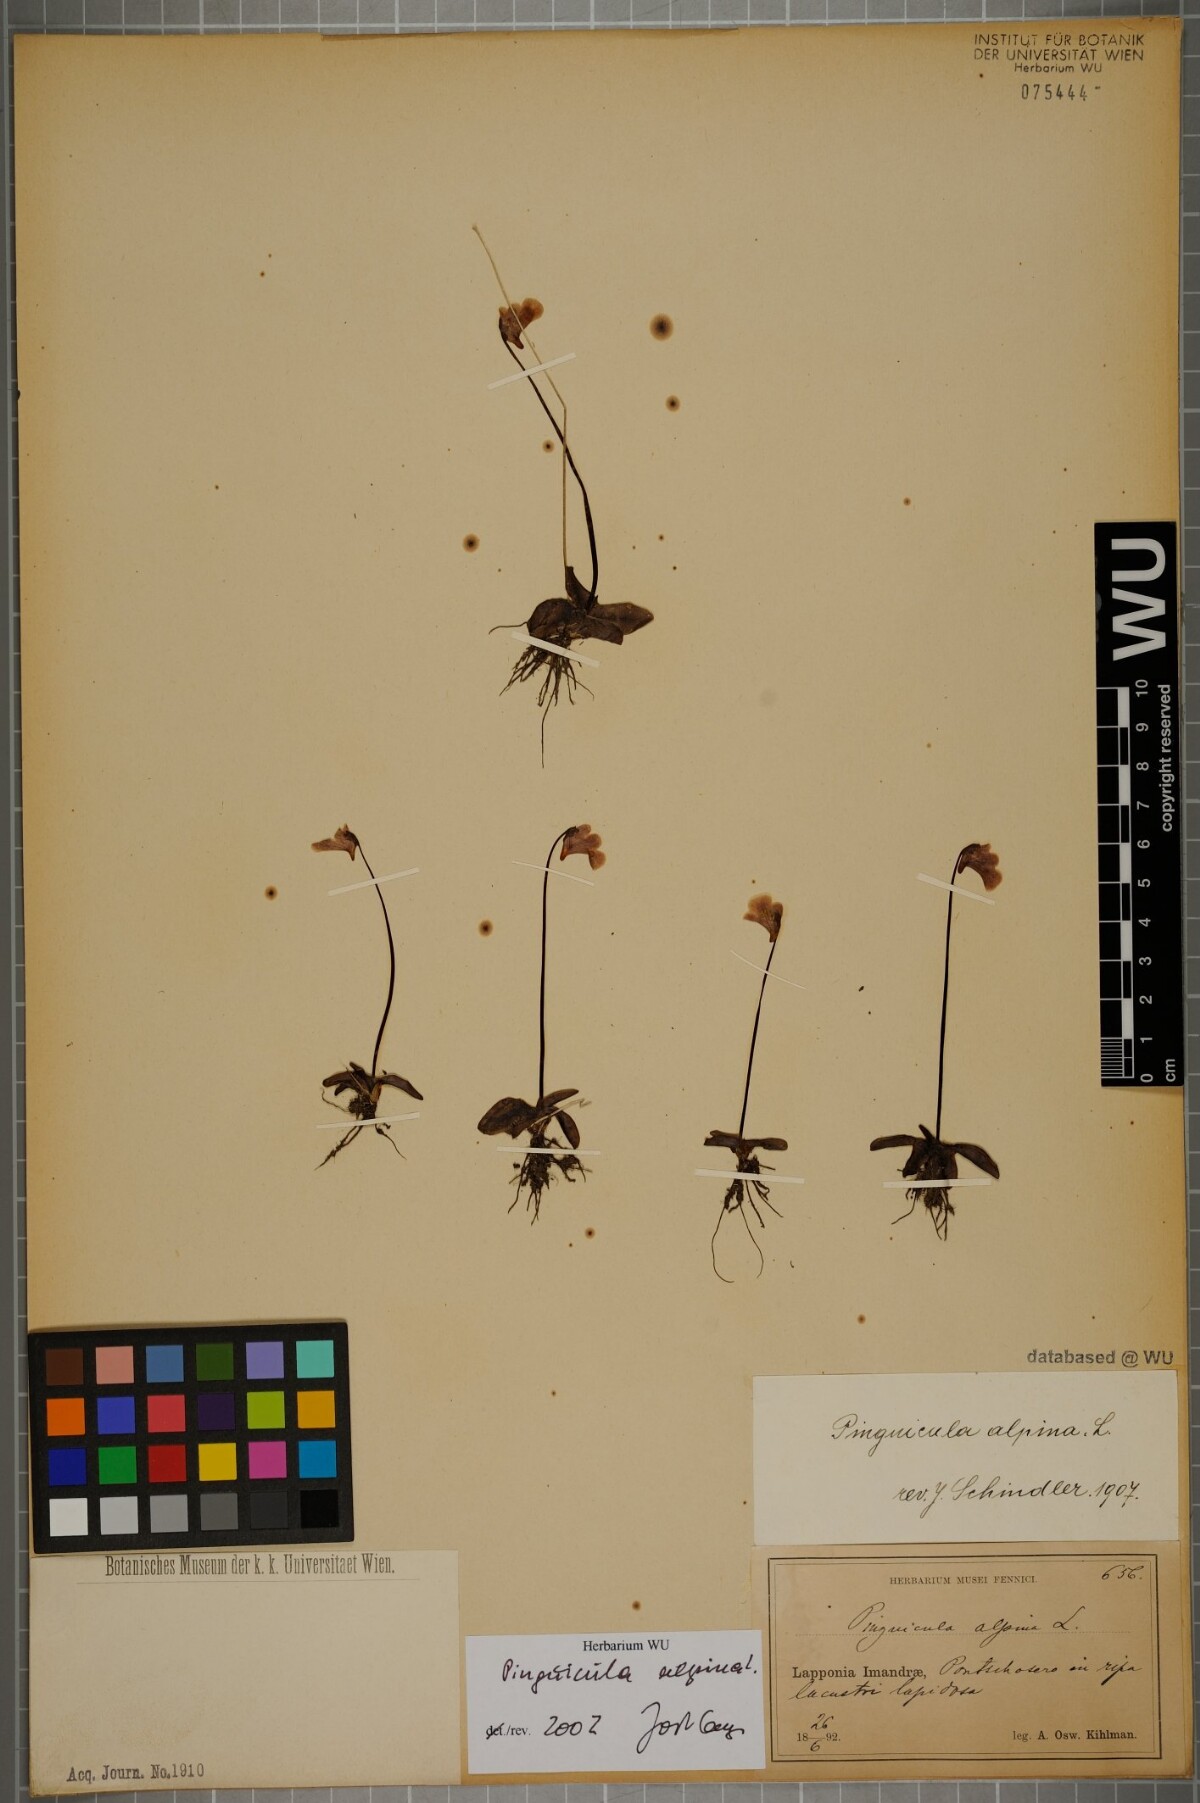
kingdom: Plantae
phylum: Tracheophyta
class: Magnoliopsida
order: Lamiales
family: Lentibulariaceae
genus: Pinguicula
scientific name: Pinguicula alpina
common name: Alpine butterwort
